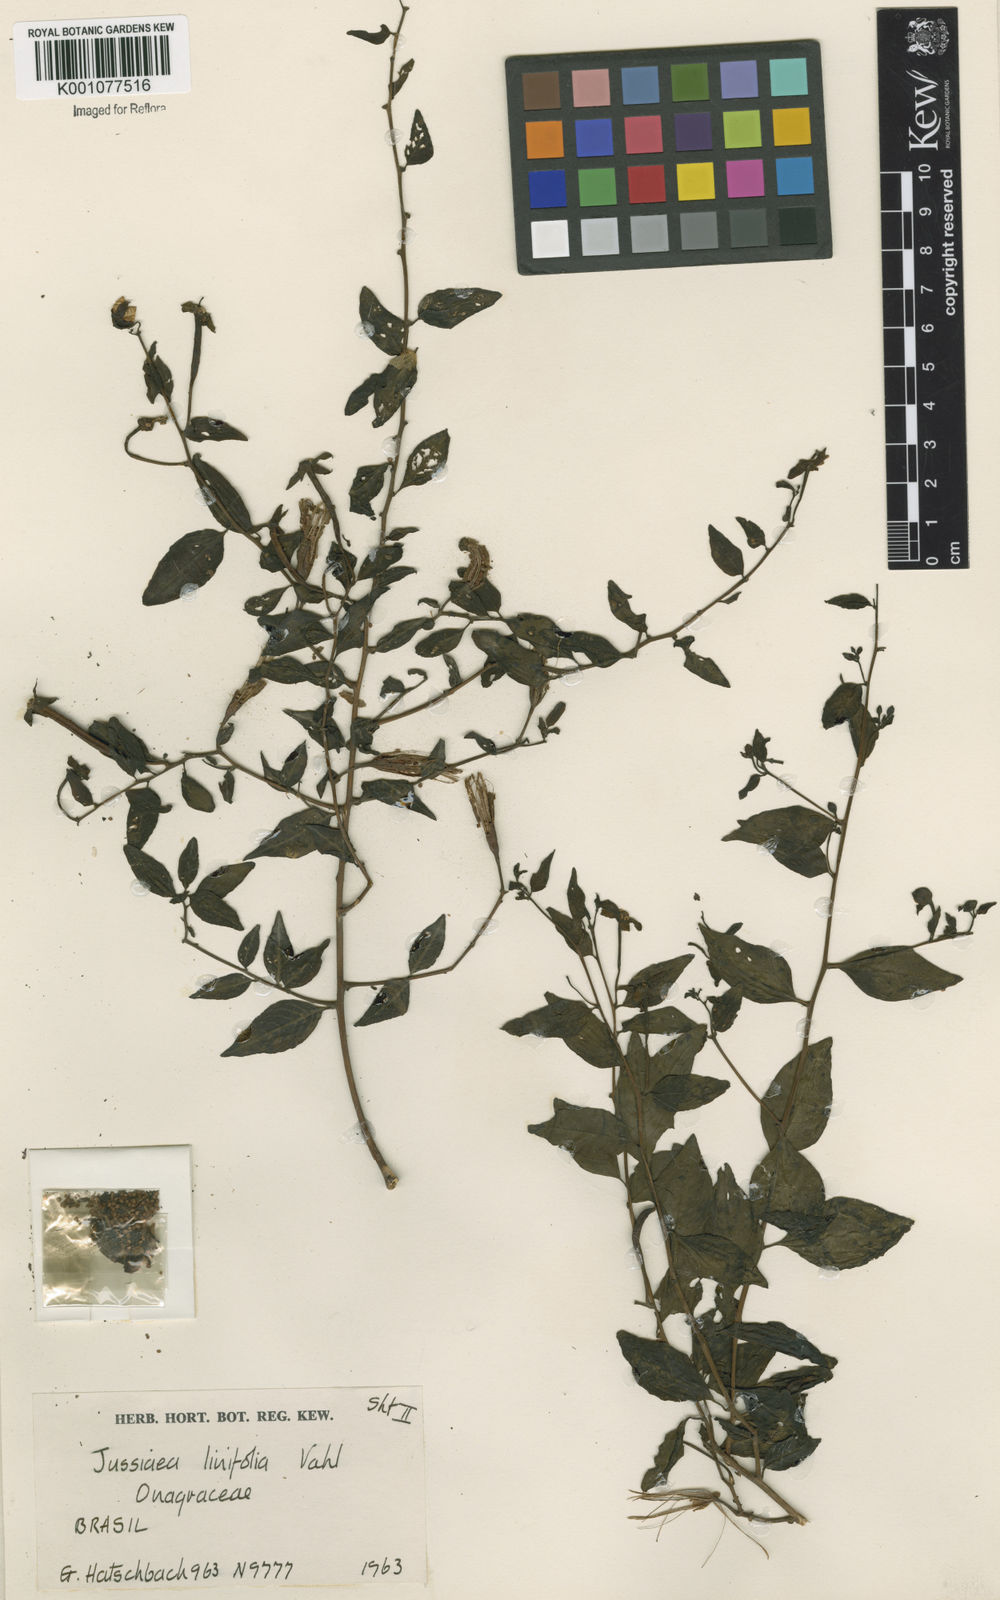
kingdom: Plantae
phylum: Tracheophyta
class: Magnoliopsida
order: Myrtales
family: Onagraceae
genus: Ludwigia
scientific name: Ludwigia hyssopifolia
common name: Linear leaf water primrose
